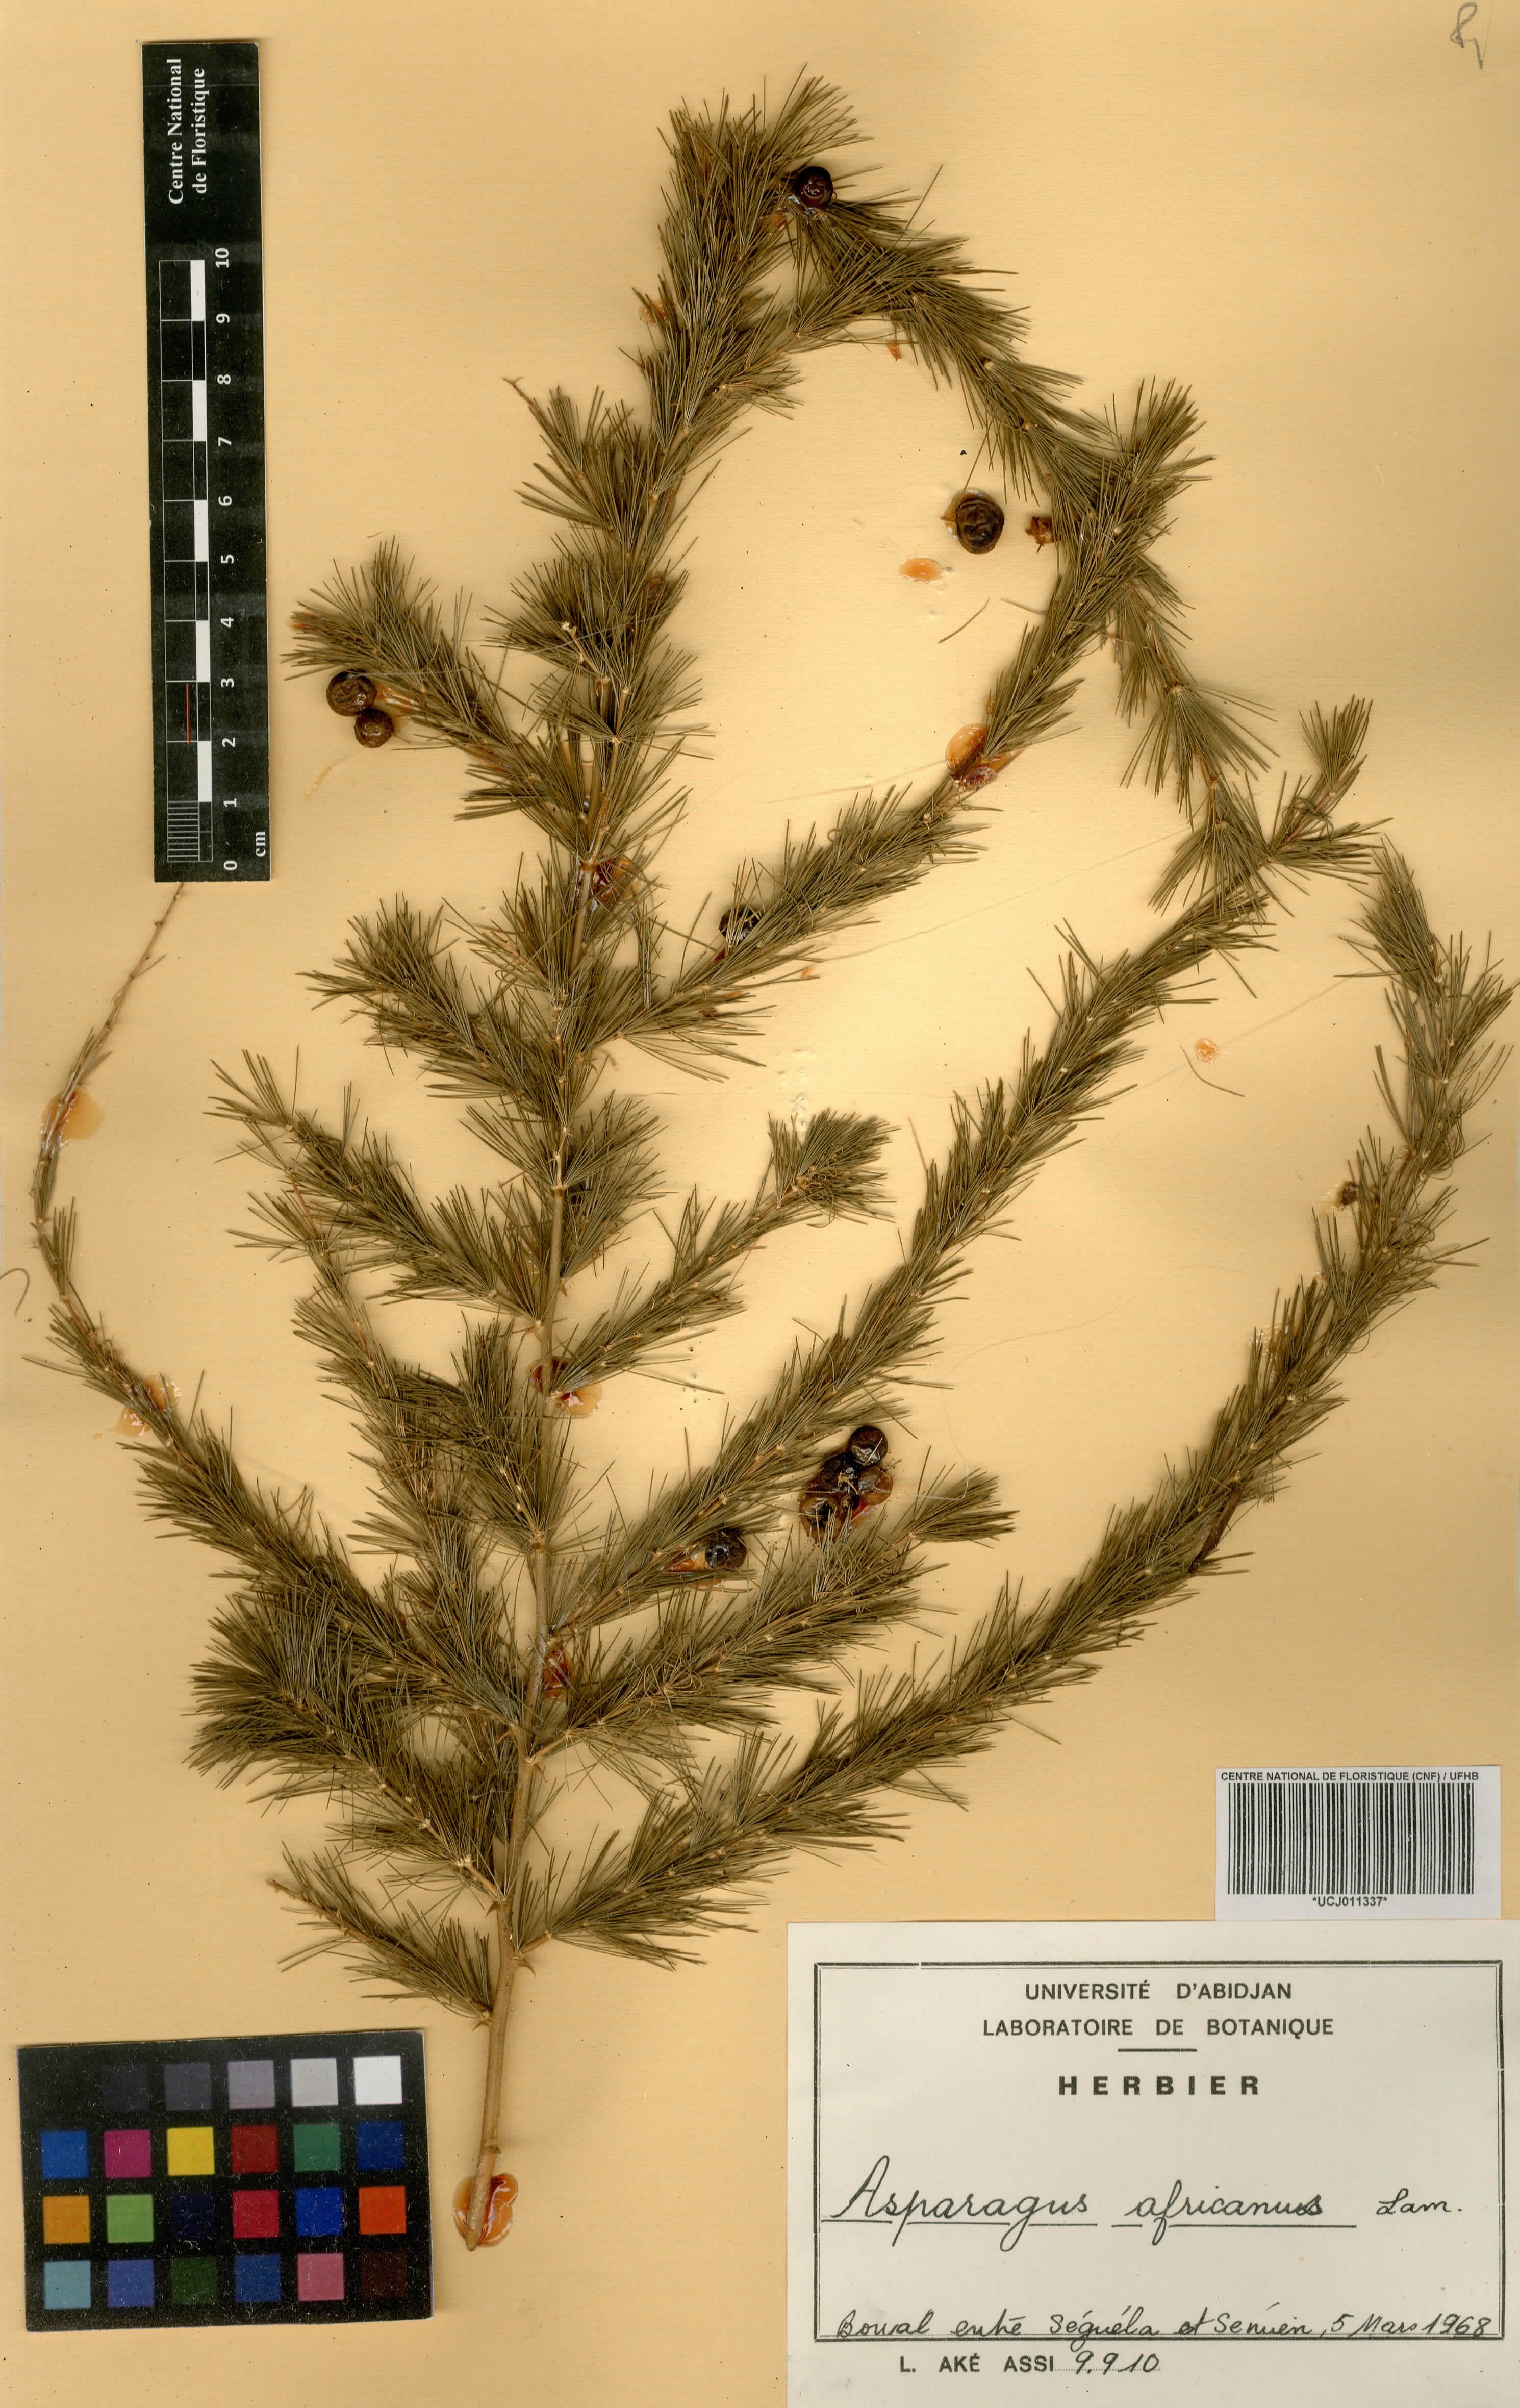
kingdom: Plantae
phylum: Tracheophyta
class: Liliopsida
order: Asparagales
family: Asparagaceae
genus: Asparagus
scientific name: Asparagus africanus
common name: Asparagus-fern
